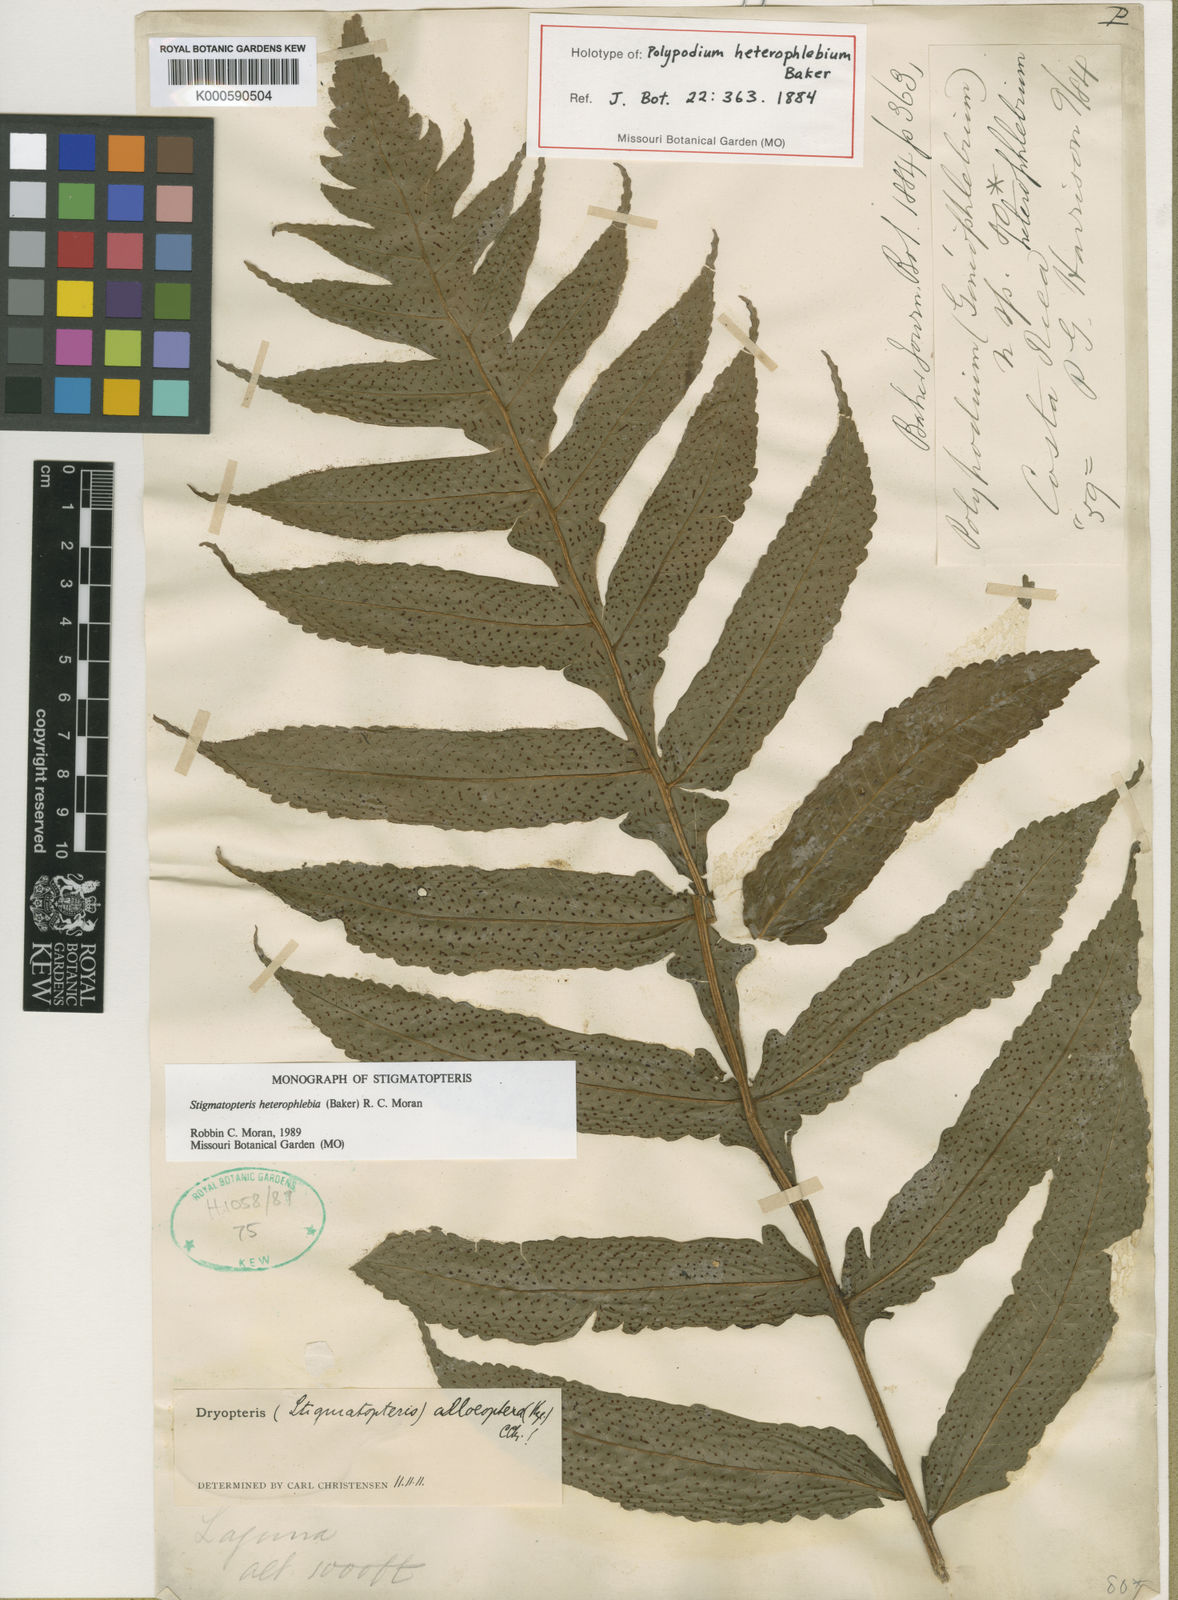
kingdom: Plantae
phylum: Tracheophyta
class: Polypodiopsida
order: Polypodiales
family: Dryopteridaceae
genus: Stigmatopteris
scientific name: Stigmatopteris heterophlebia
